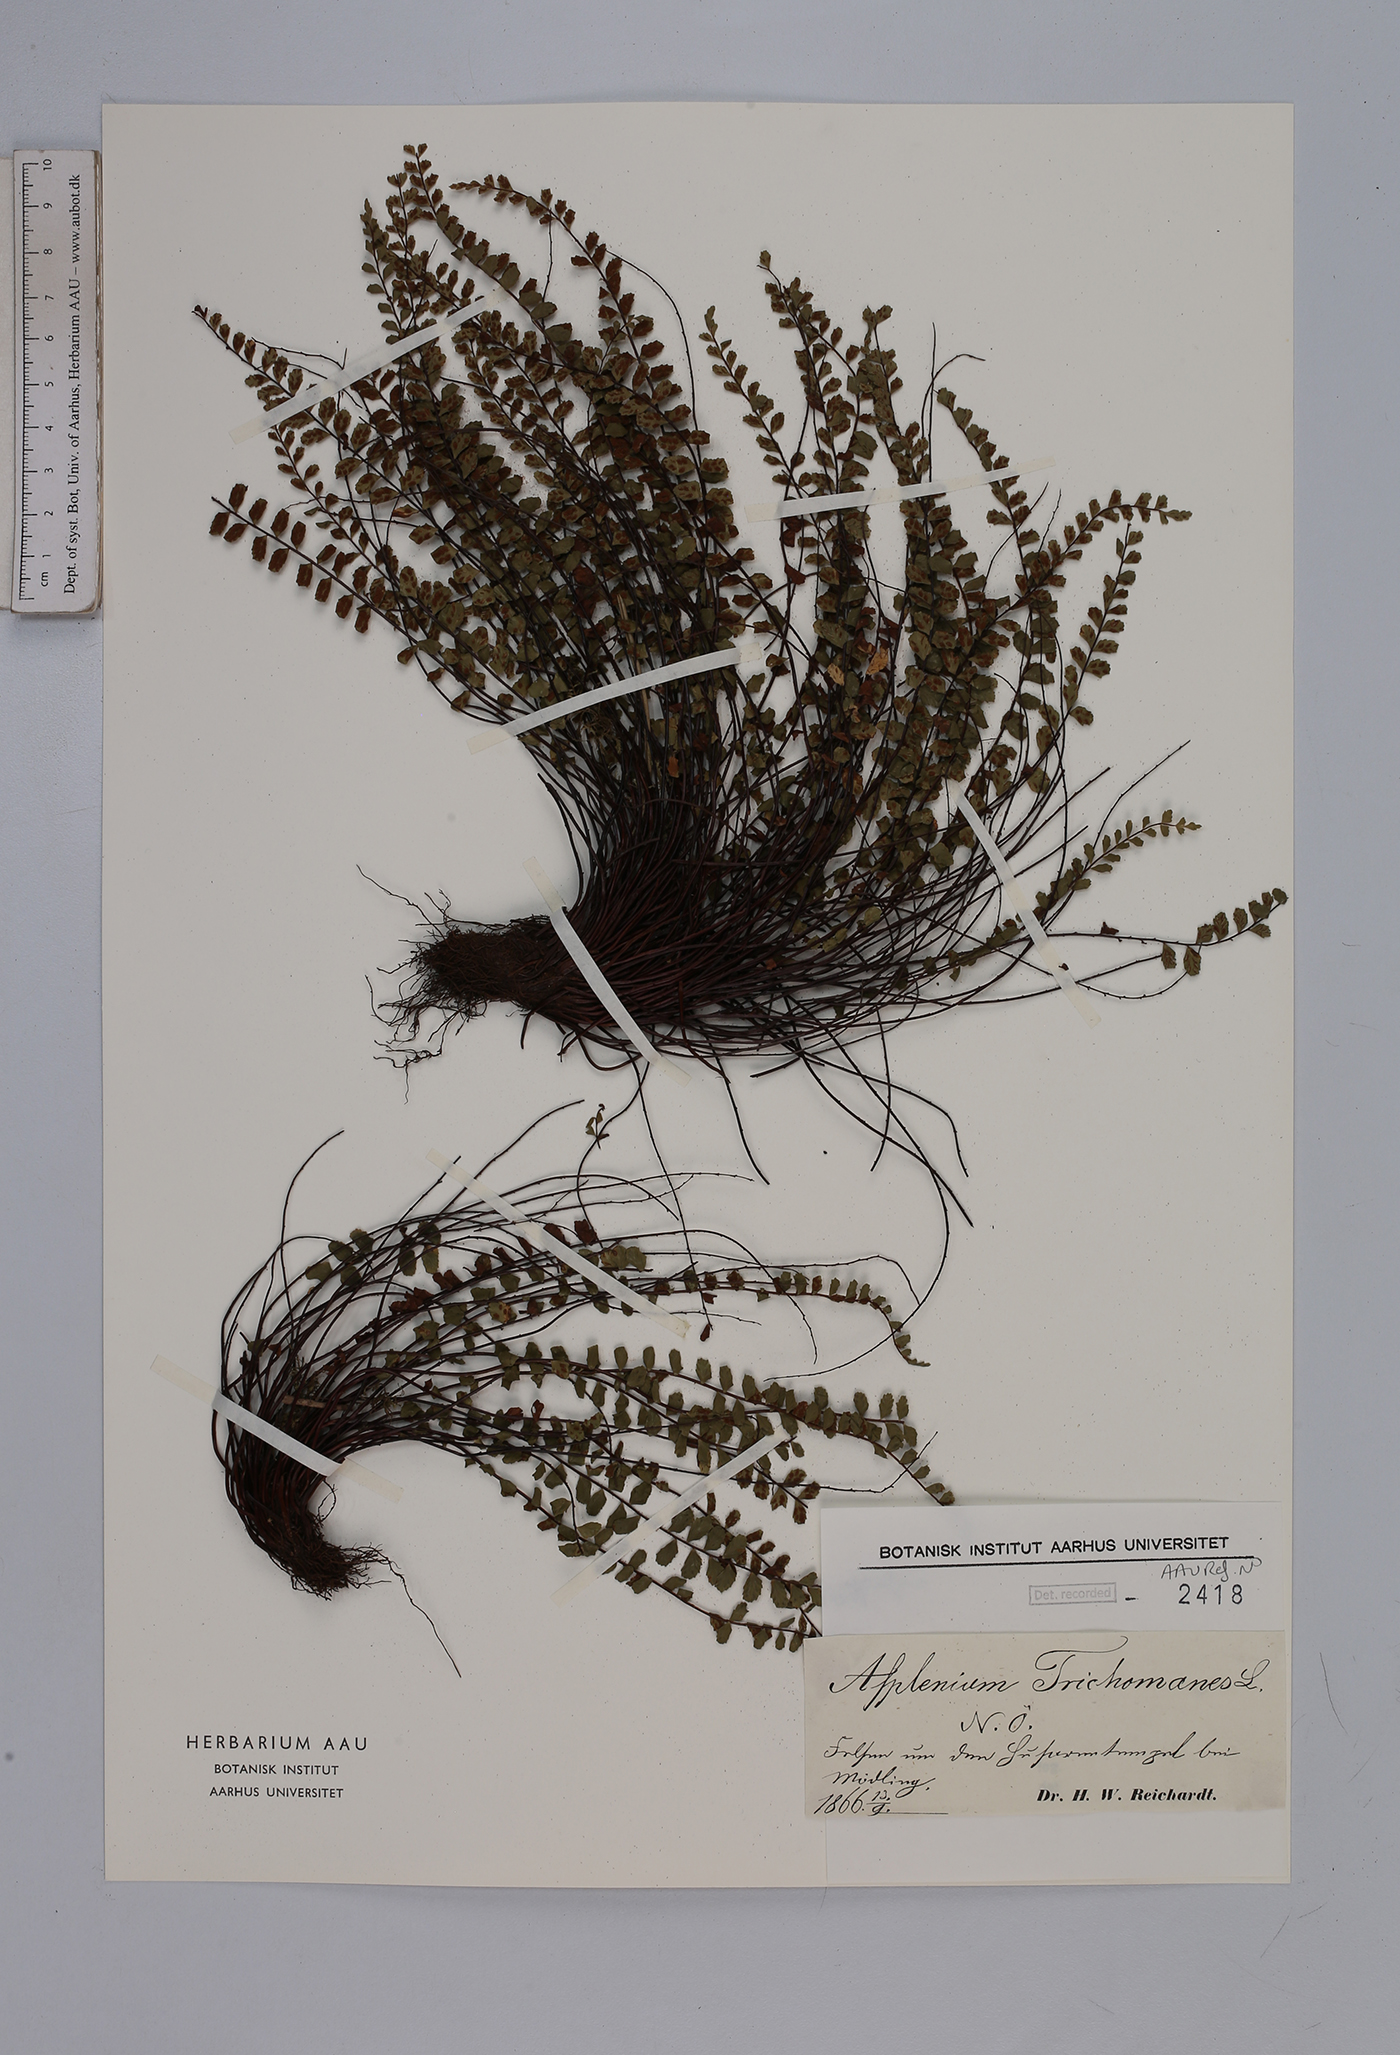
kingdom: Plantae
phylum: Tracheophyta
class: Polypodiopsida
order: Polypodiales
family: Aspleniaceae
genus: Asplenium
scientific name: Asplenium trichomanes
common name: Maidenhair spleenwort
